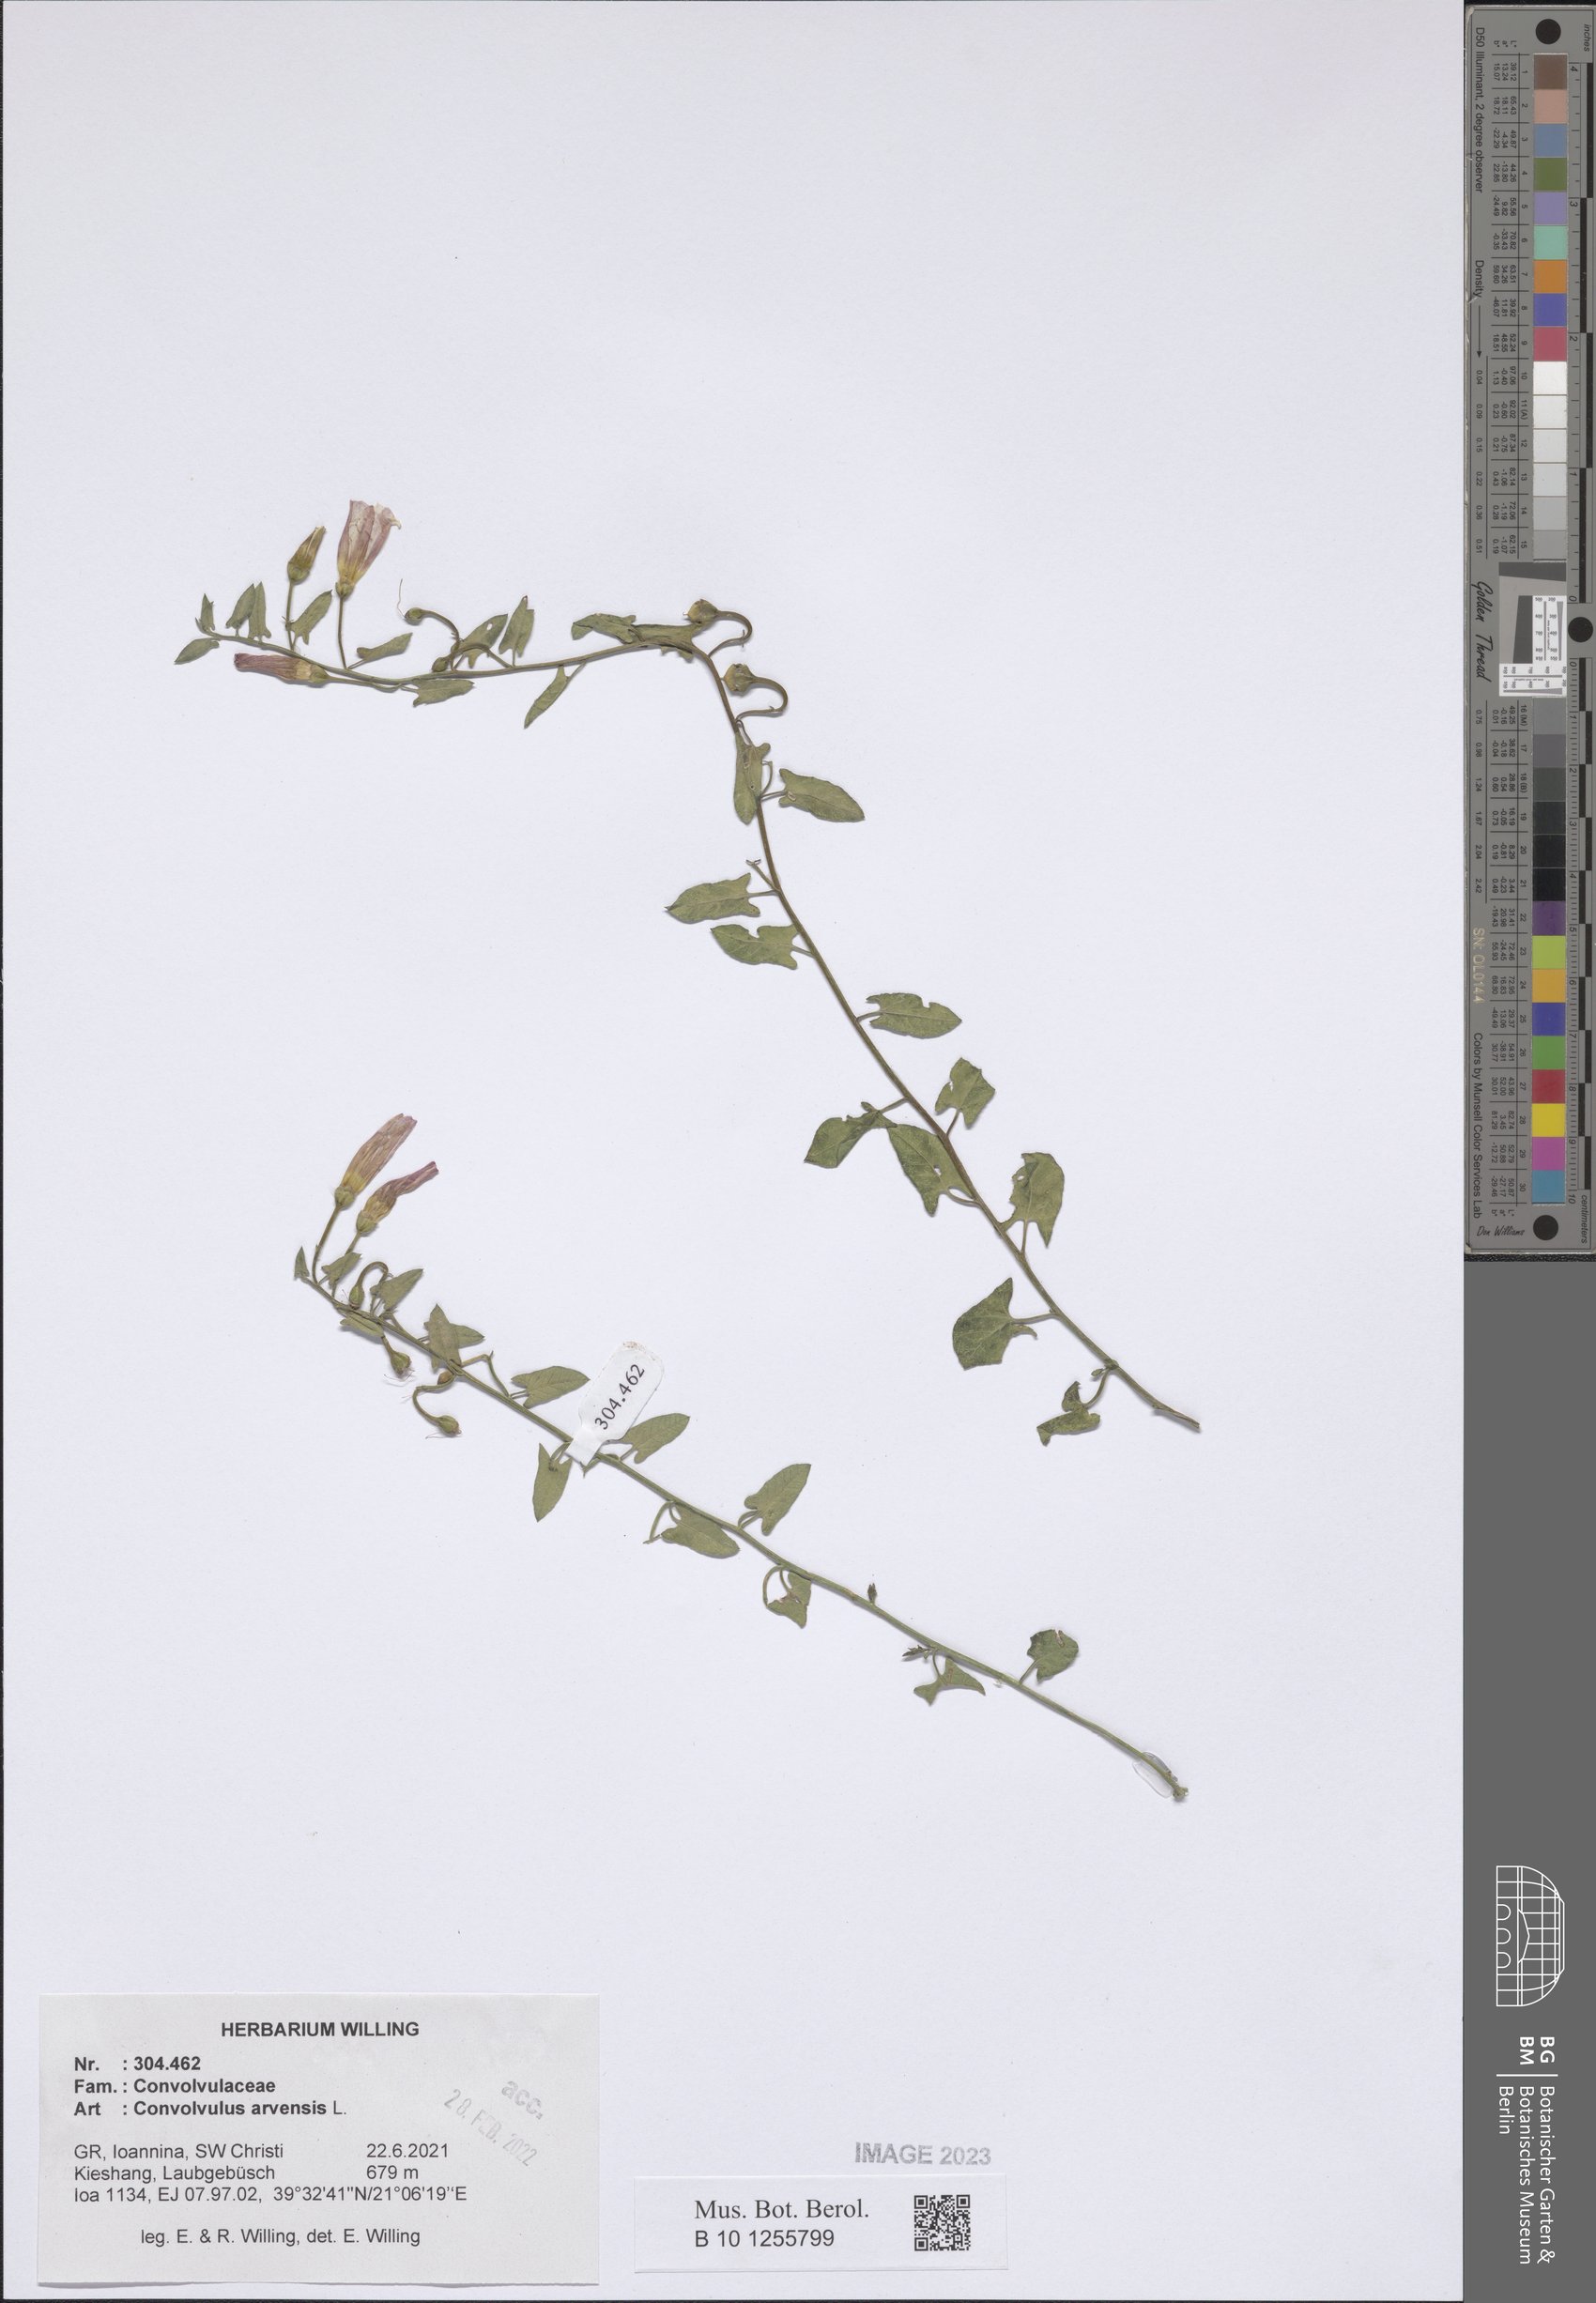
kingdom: Plantae
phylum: Tracheophyta
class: Magnoliopsida
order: Solanales
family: Convolvulaceae
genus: Convolvulus
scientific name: Convolvulus arvensis
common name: Field bindweed
